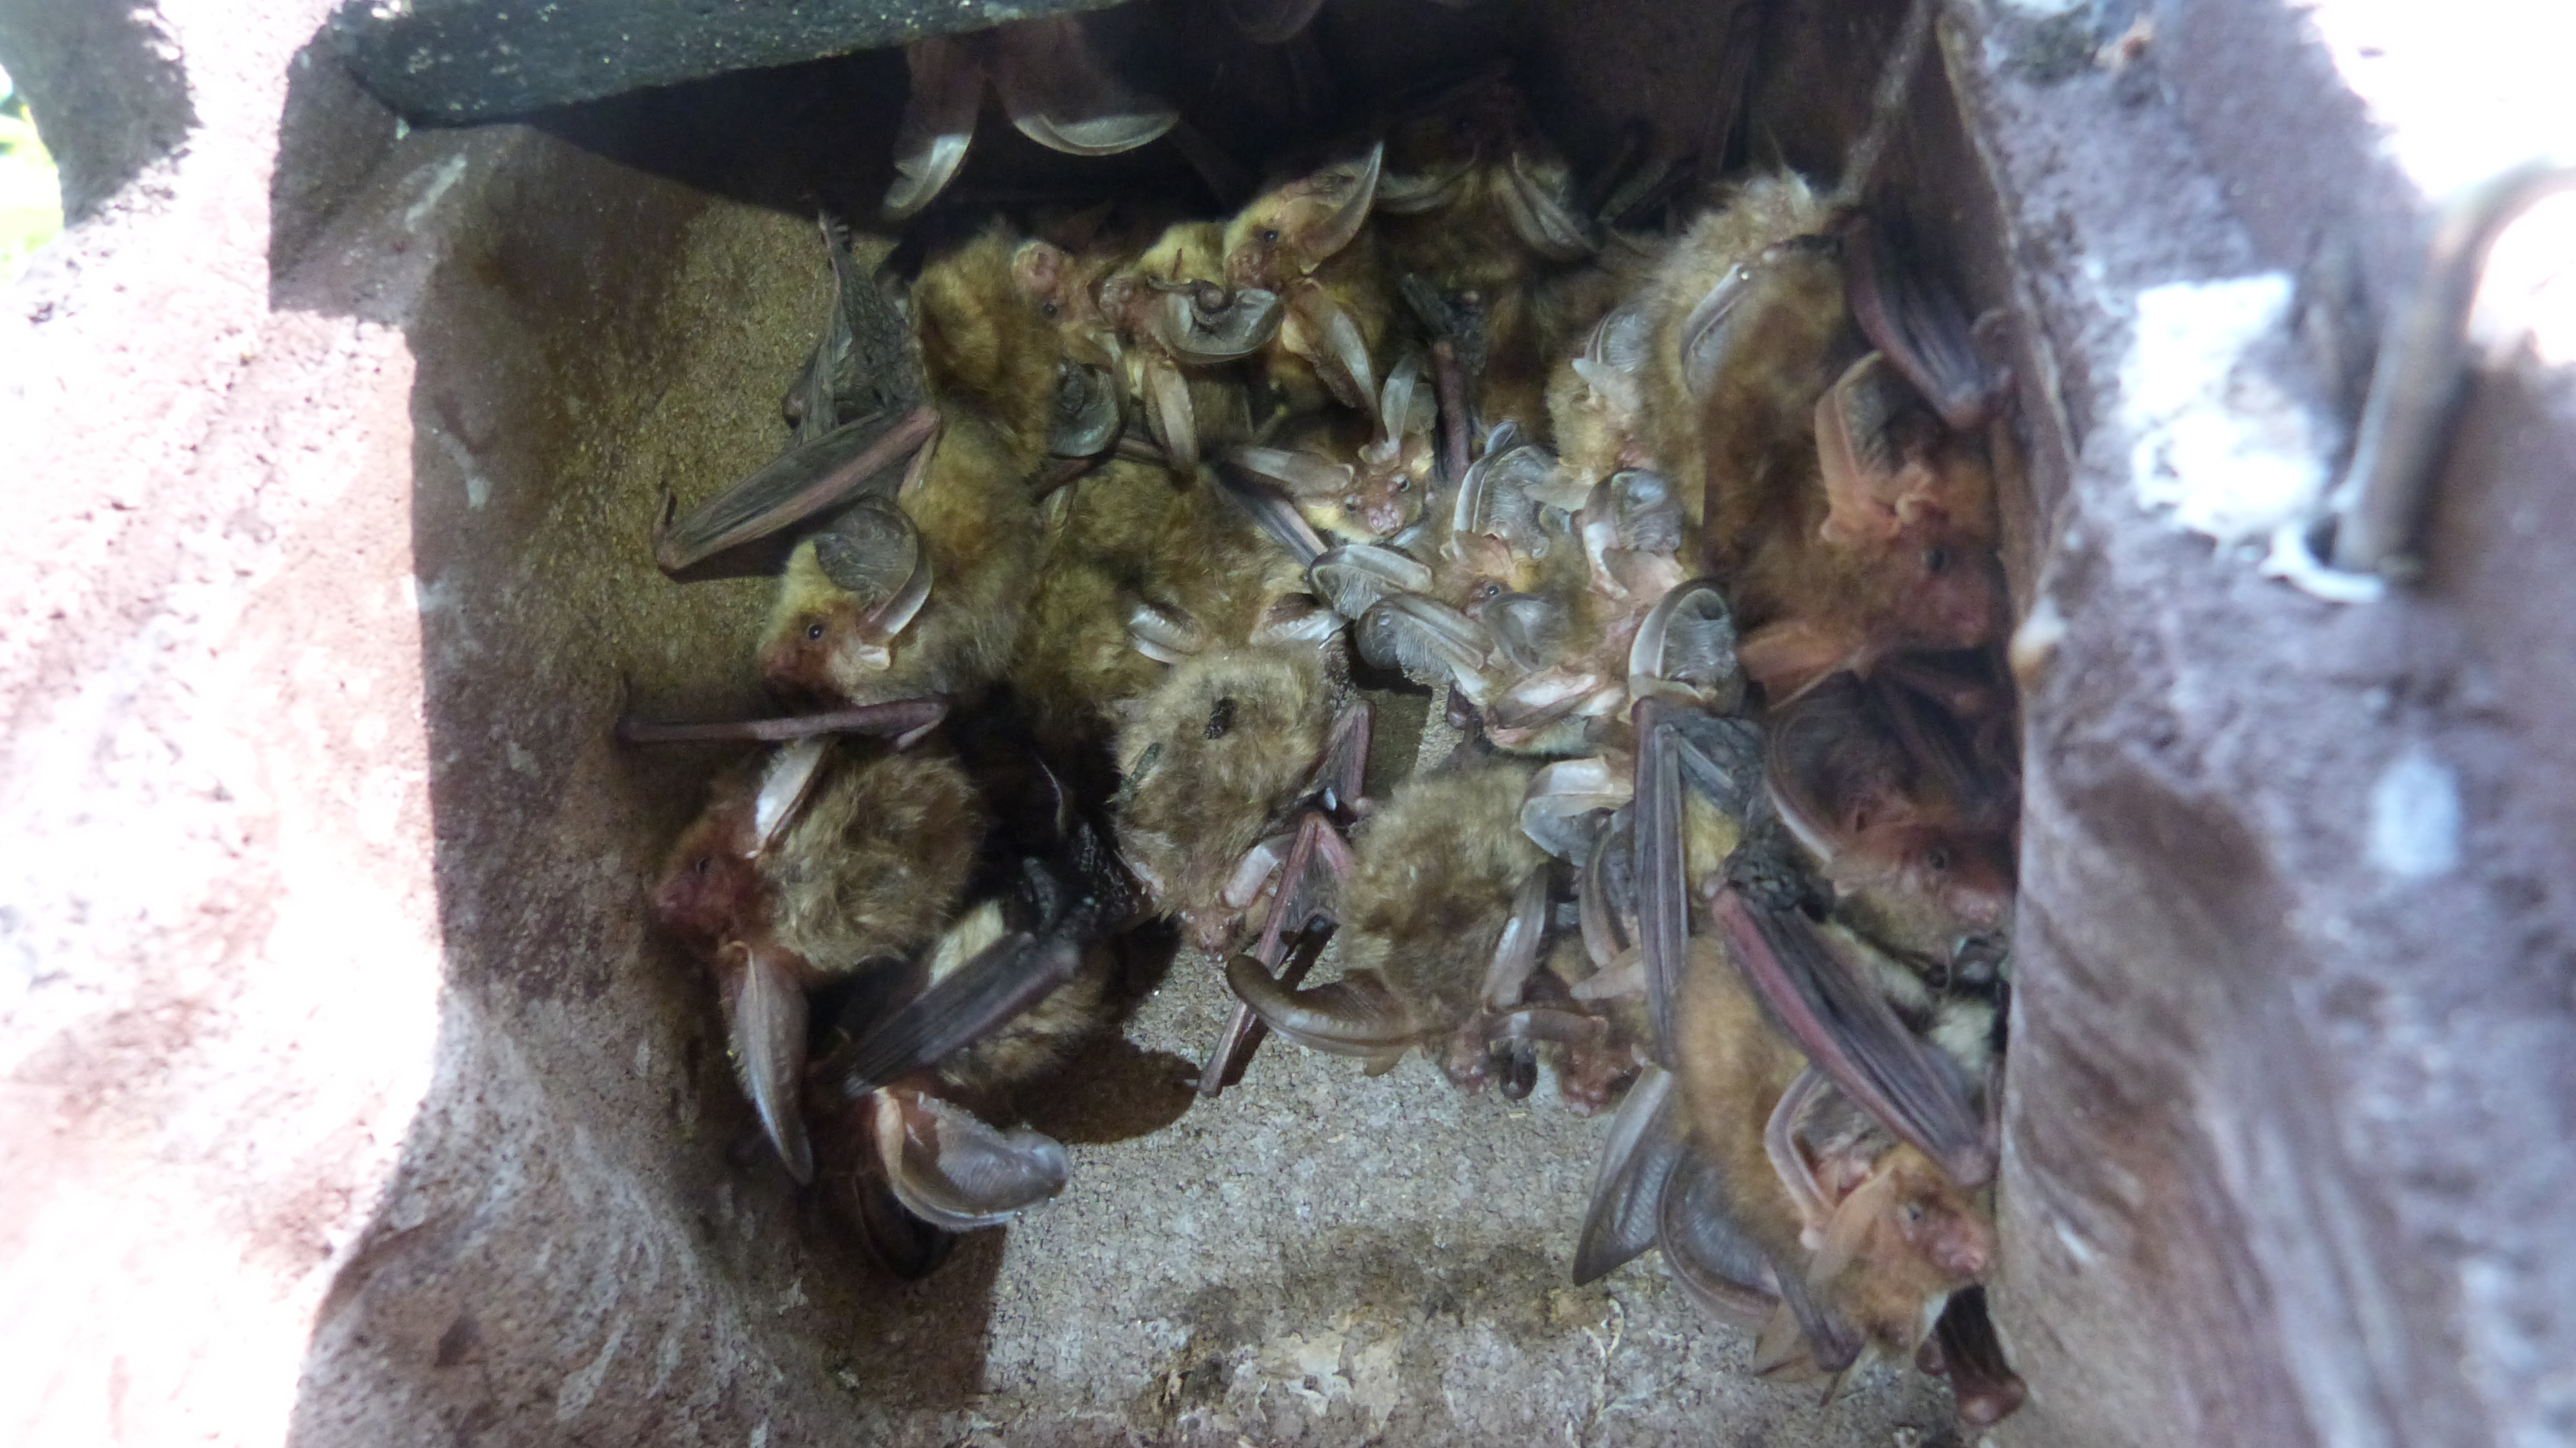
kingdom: Animalia
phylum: Chordata
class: Mammalia
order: Chiroptera
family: Vespertilionidae
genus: Plecotus
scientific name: Plecotus auritus
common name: Brown long-eared bat
